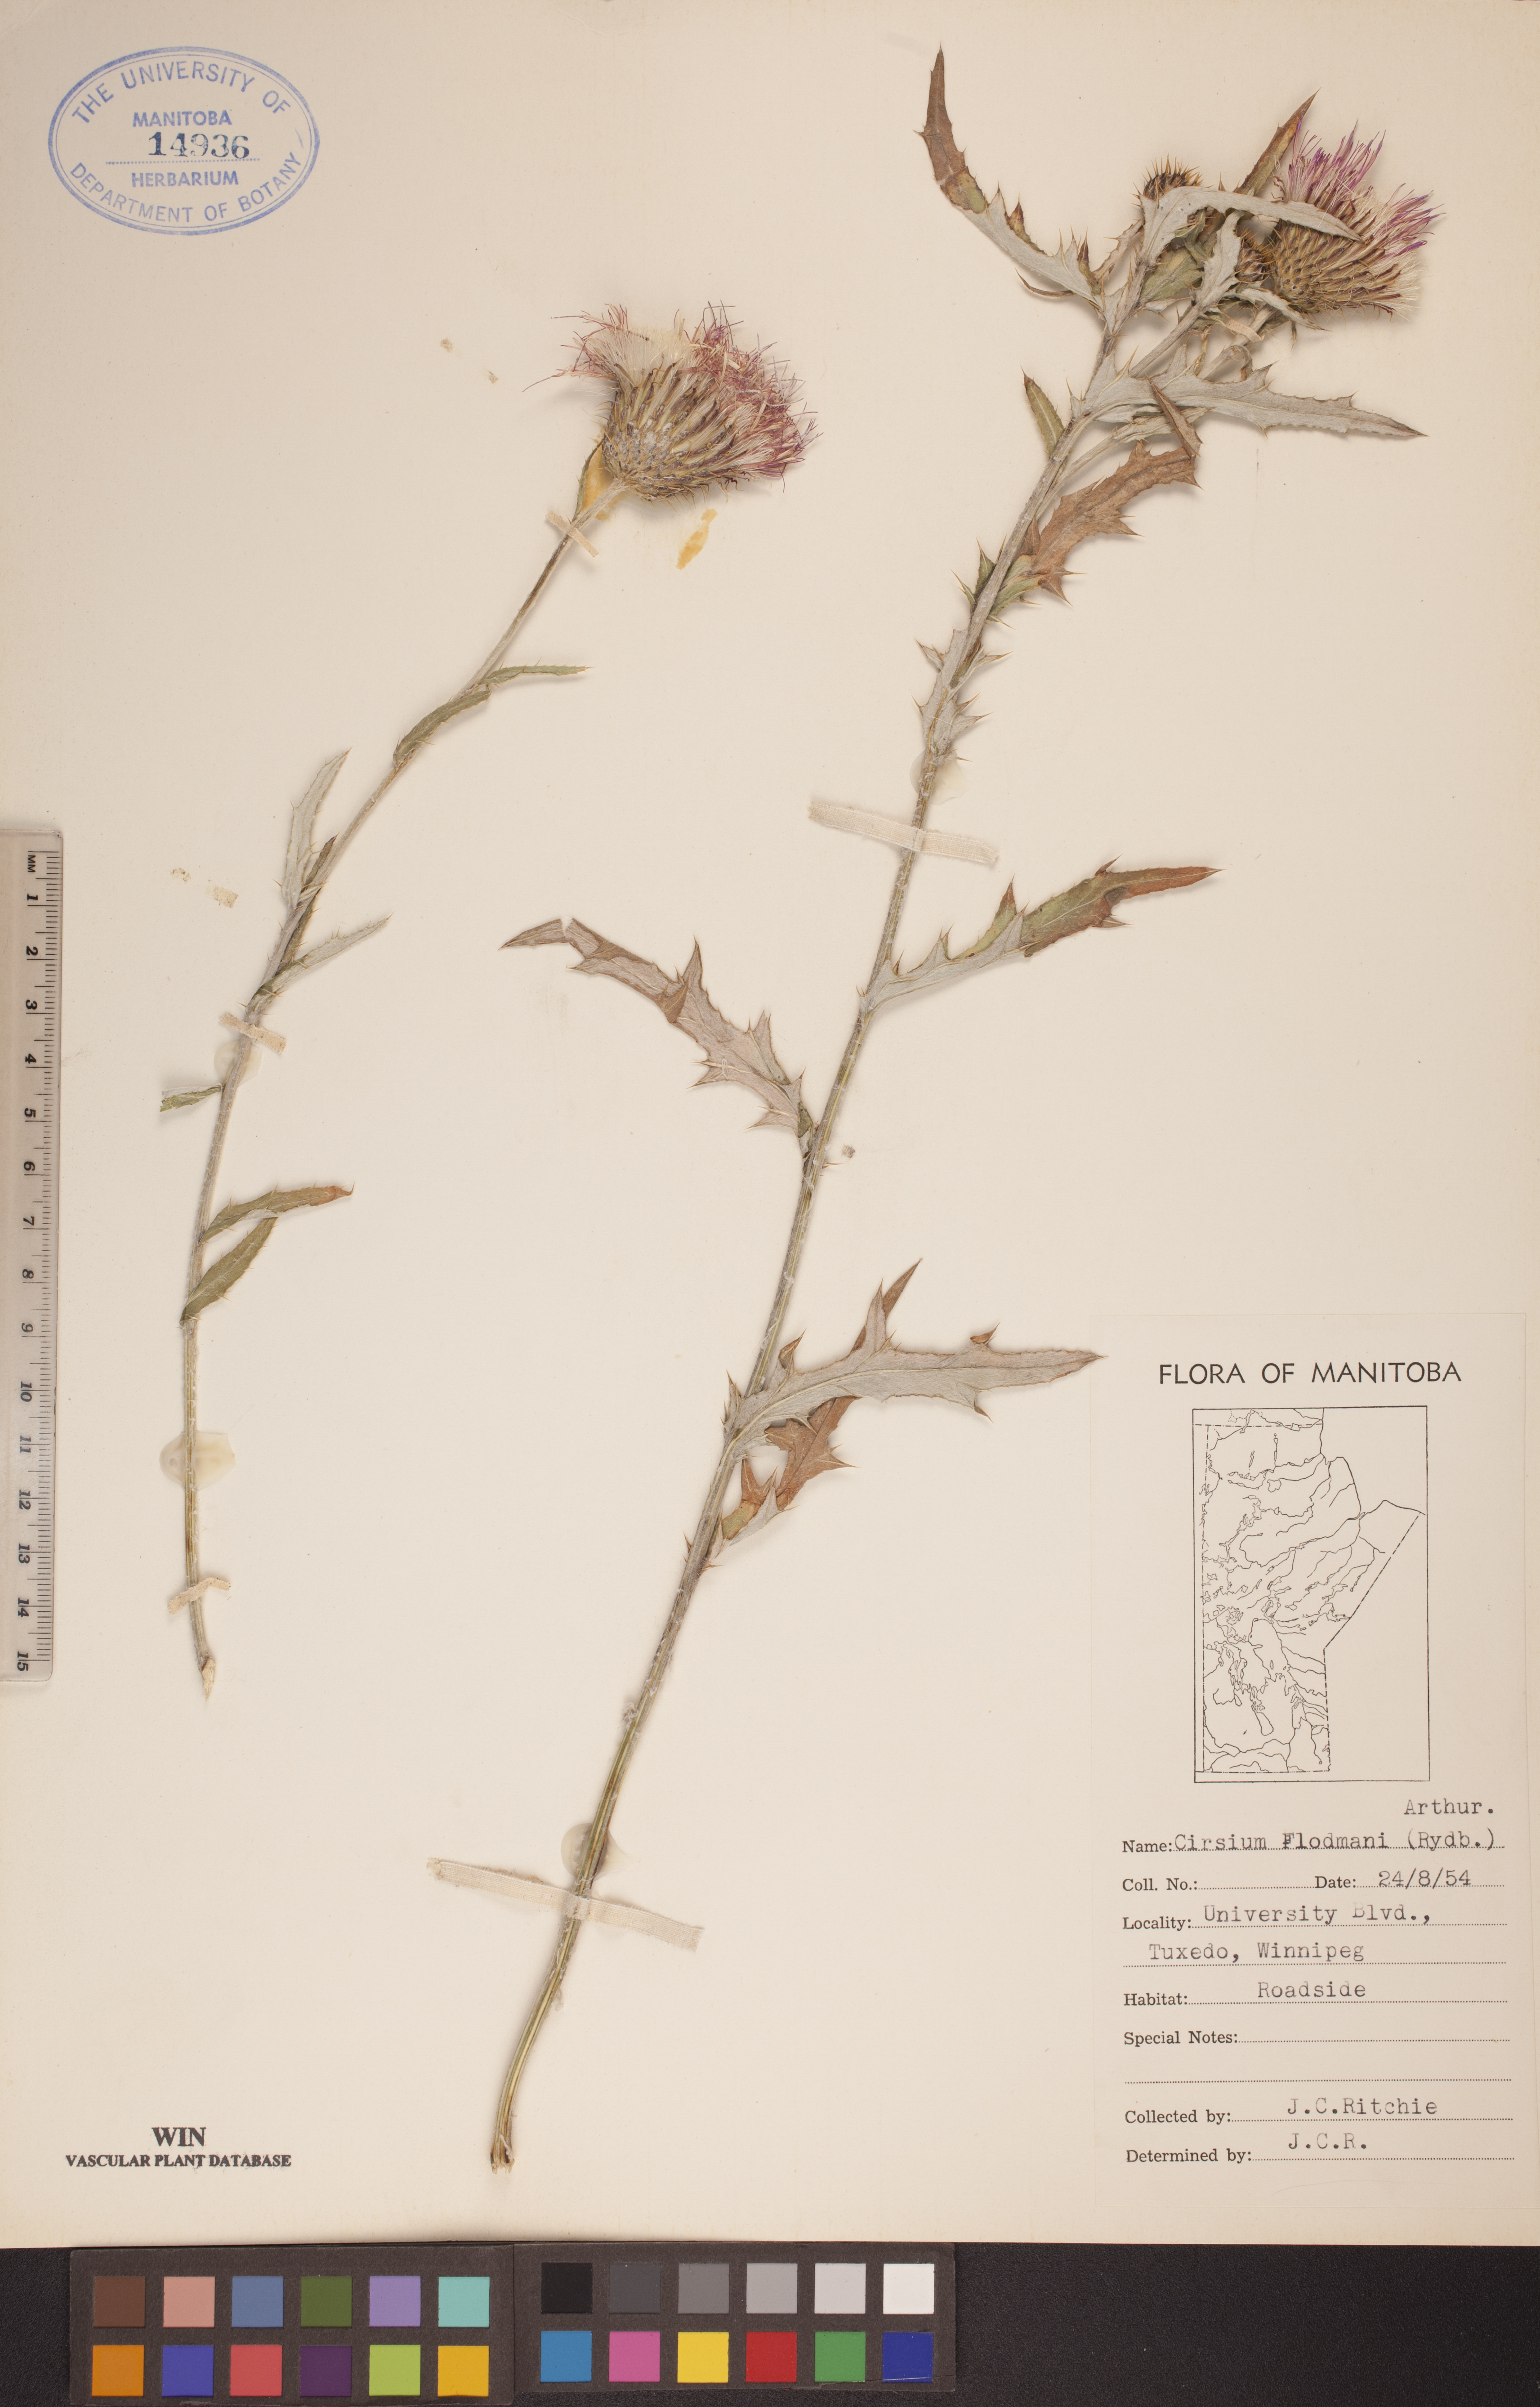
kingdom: Plantae
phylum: Tracheophyta
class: Magnoliopsida
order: Asterales
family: Asteraceae
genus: Cirsium
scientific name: Cirsium flodmanii
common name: Flodman's thistle
